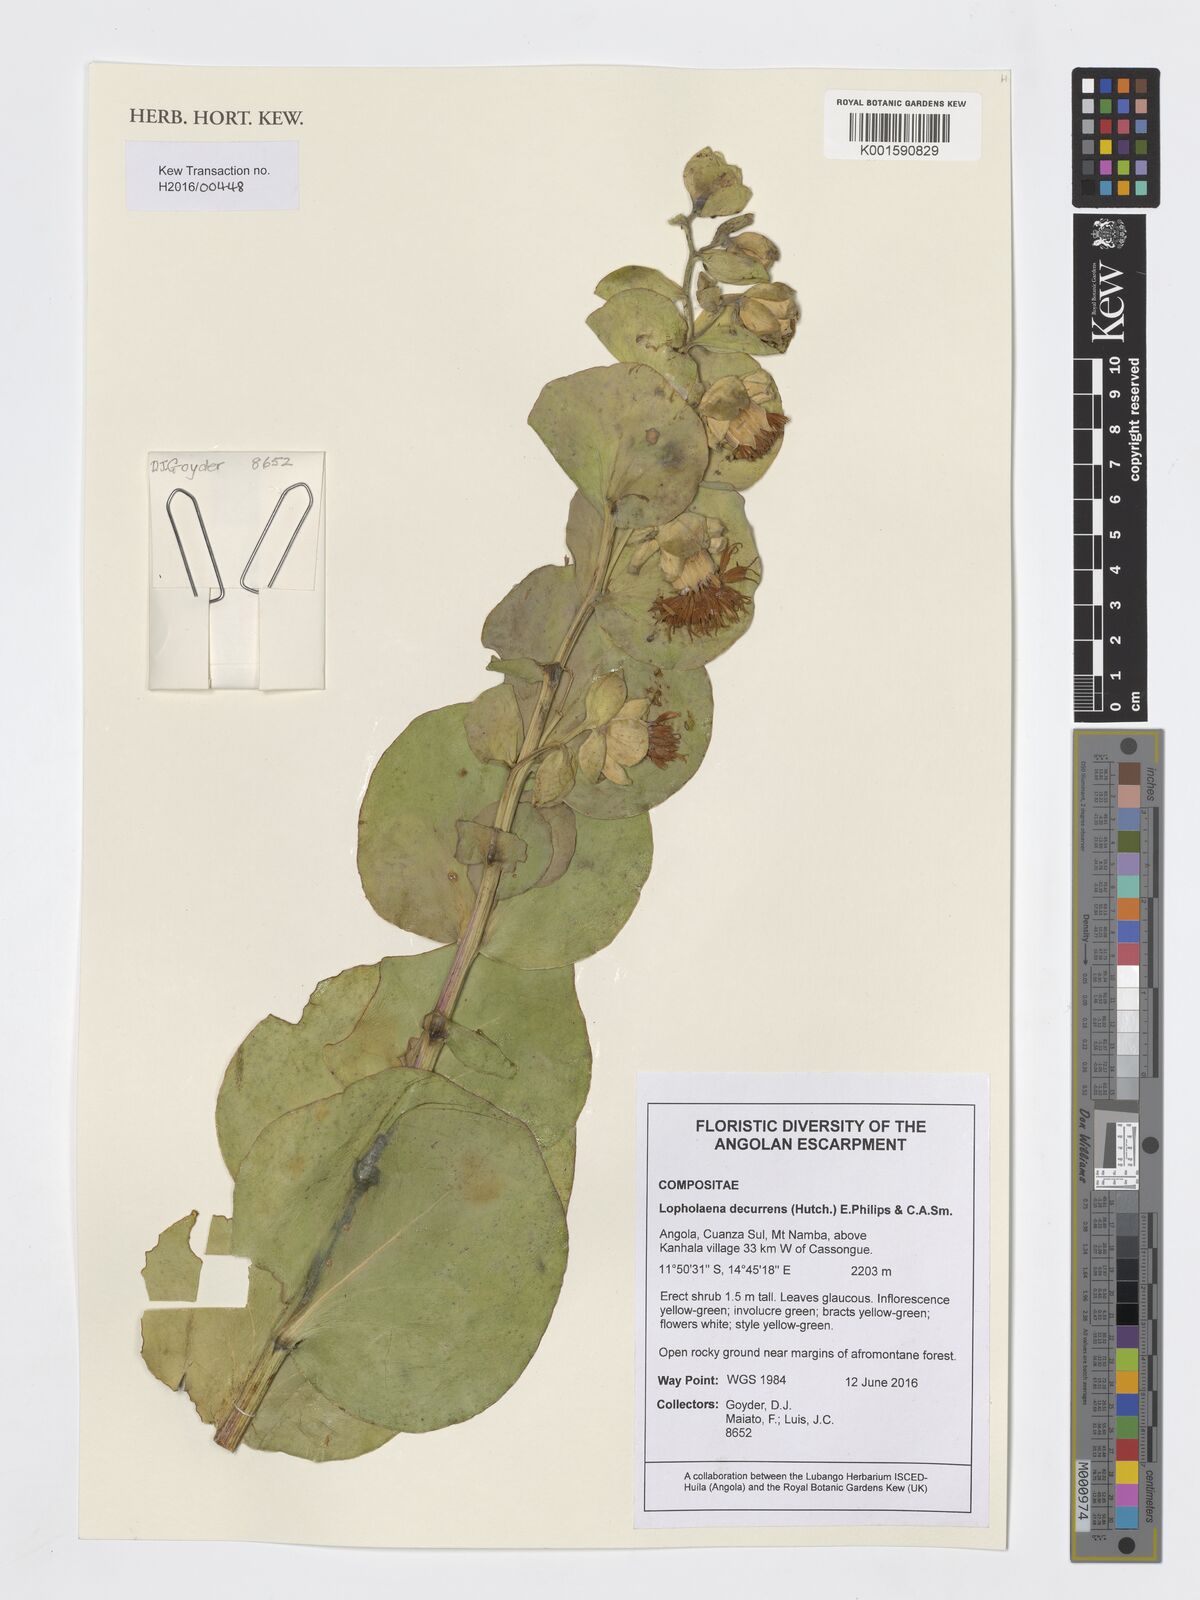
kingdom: Plantae
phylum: Tracheophyta
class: Magnoliopsida
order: Asterales
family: Asteraceae
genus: Lopholaena
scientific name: Lopholaena decurrens
